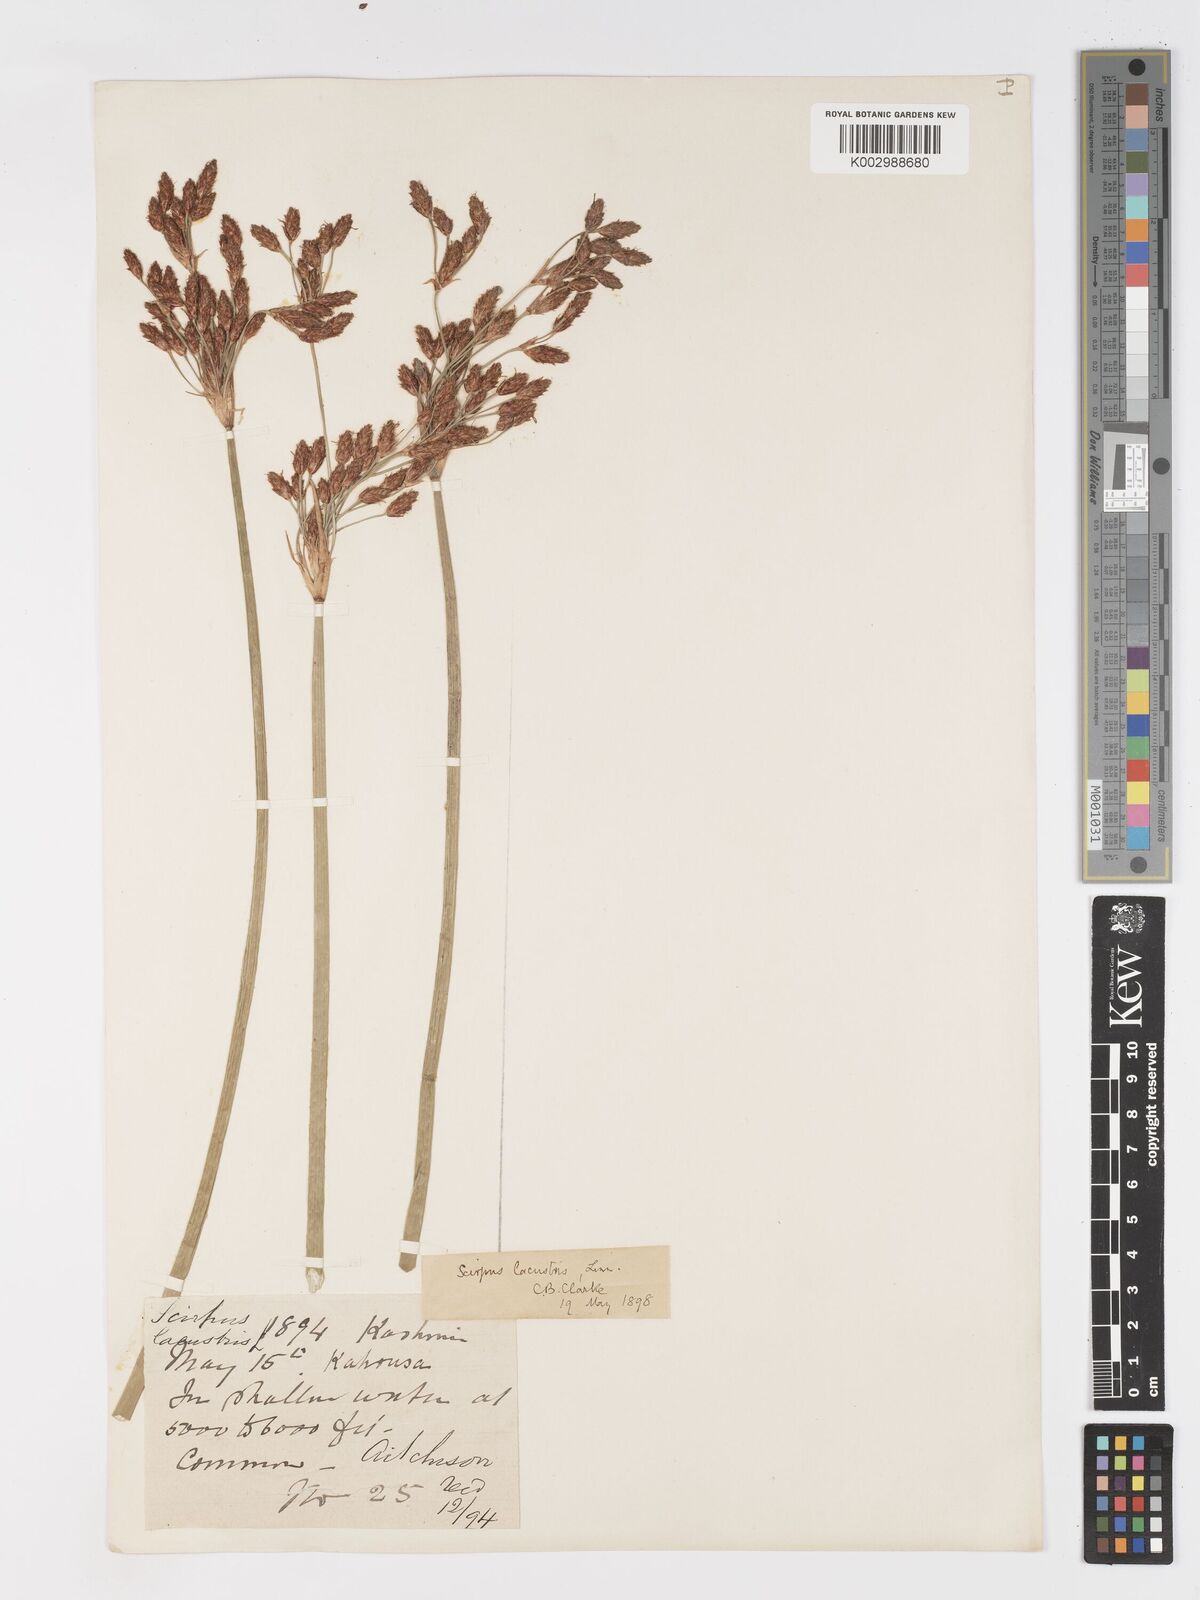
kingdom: Plantae
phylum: Tracheophyta
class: Liliopsida
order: Poales
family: Cyperaceae
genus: Schoenoplectus
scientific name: Schoenoplectus lacustris
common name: Common club-rush
